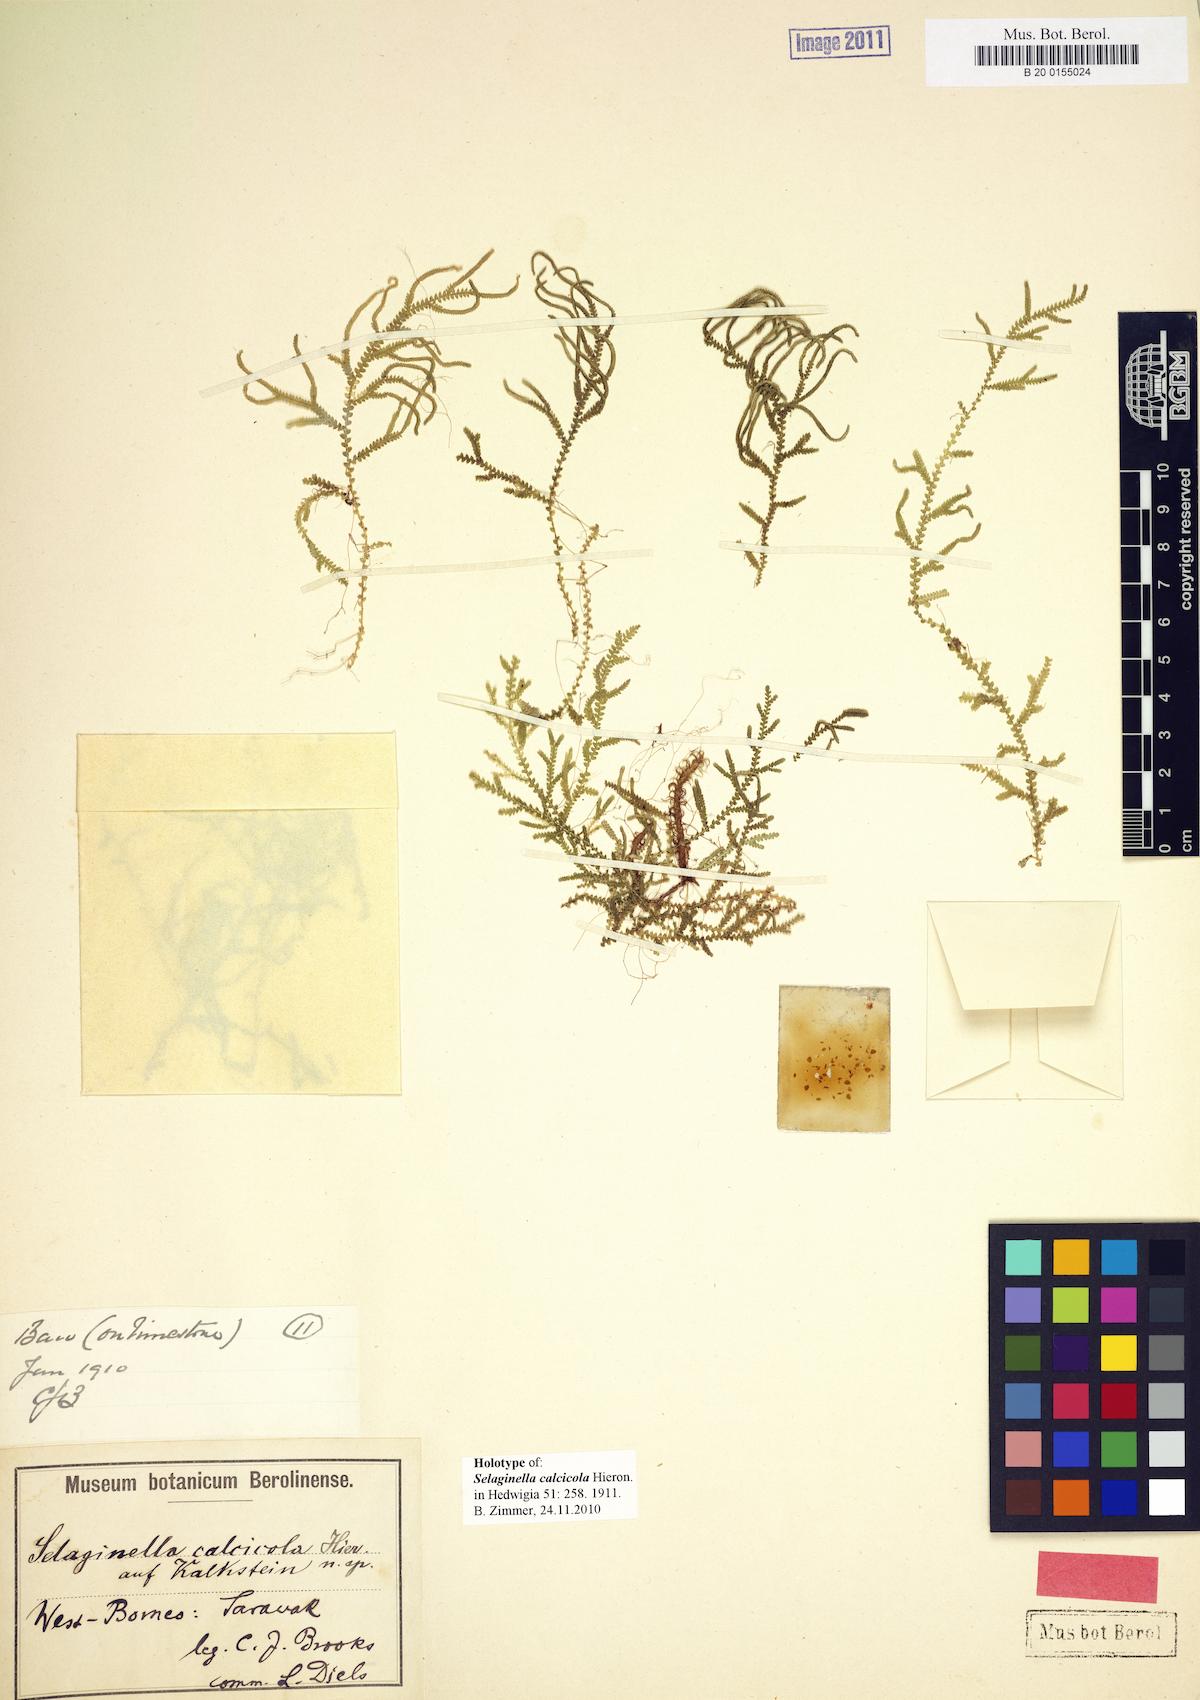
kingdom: Plantae
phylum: Tracheophyta
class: Lycopodiopsida
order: Selaginellales
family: Selaginellaceae
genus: Selaginella
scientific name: Selaginella calcicola
